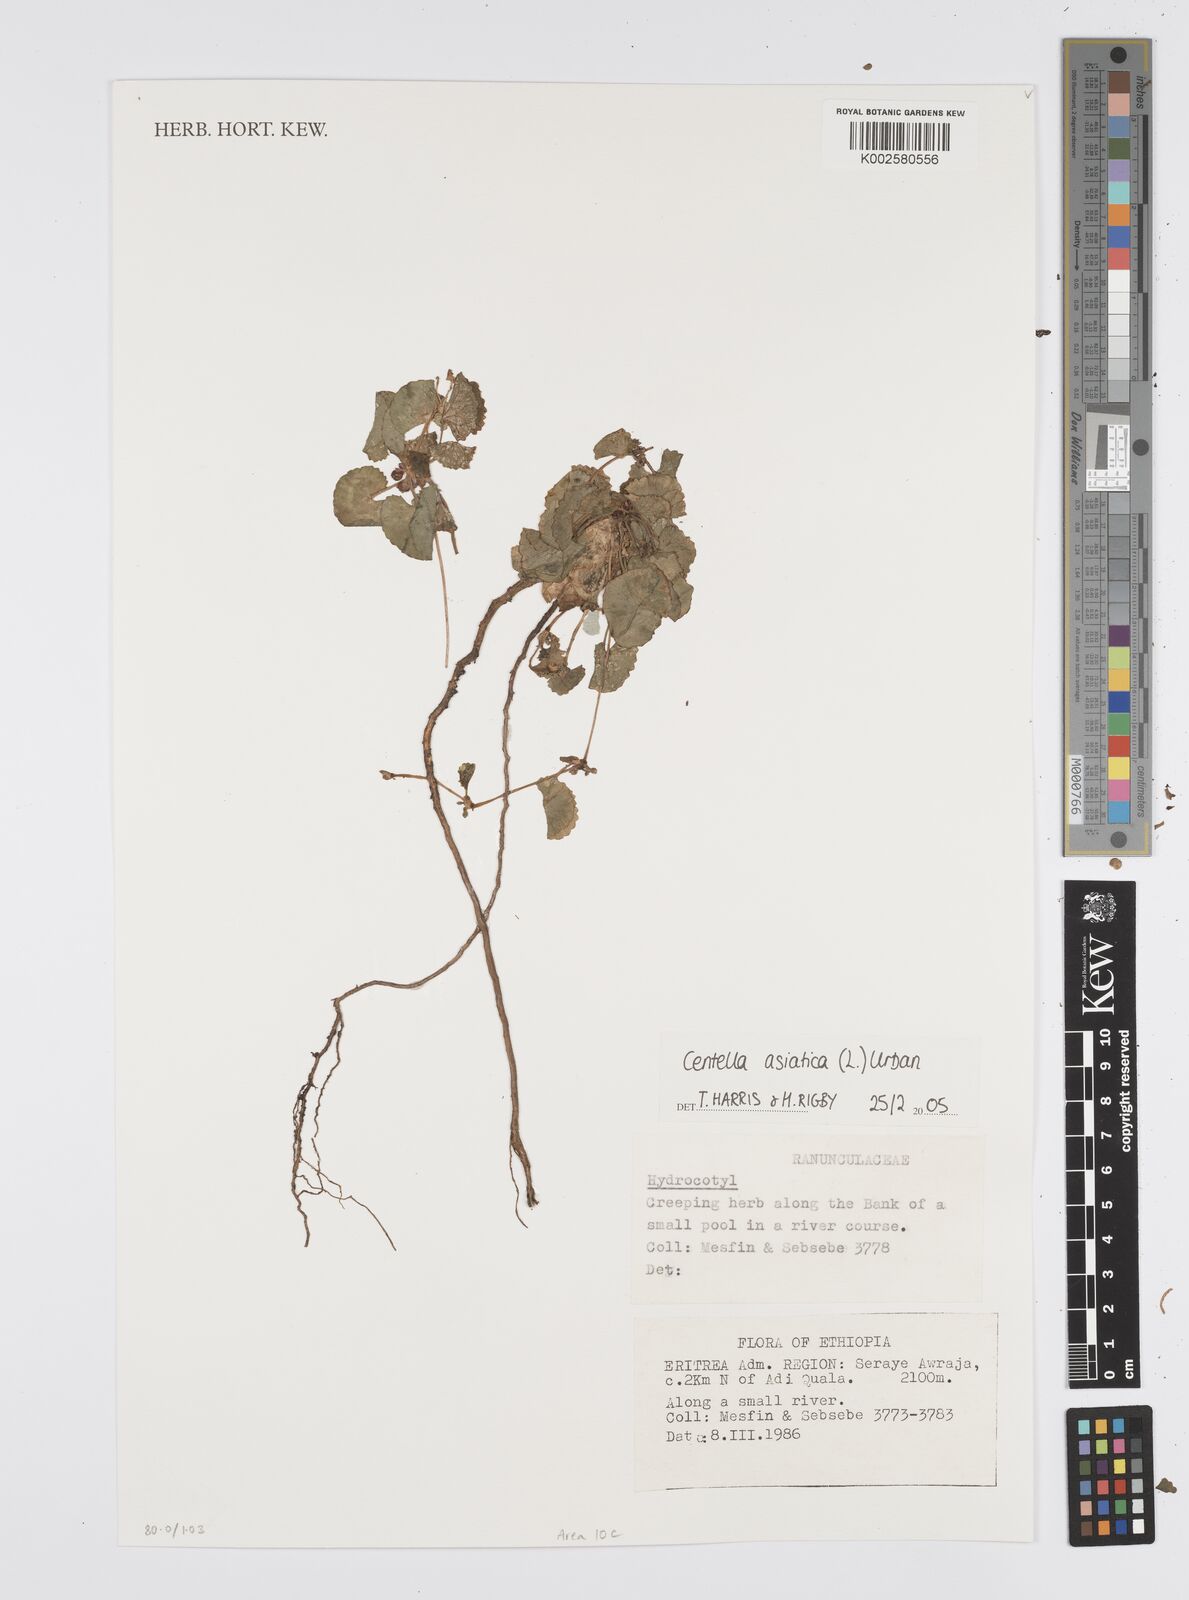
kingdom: Plantae
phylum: Tracheophyta
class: Magnoliopsida
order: Apiales
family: Apiaceae
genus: Centella
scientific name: Centella asiatica
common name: Spadeleaf
